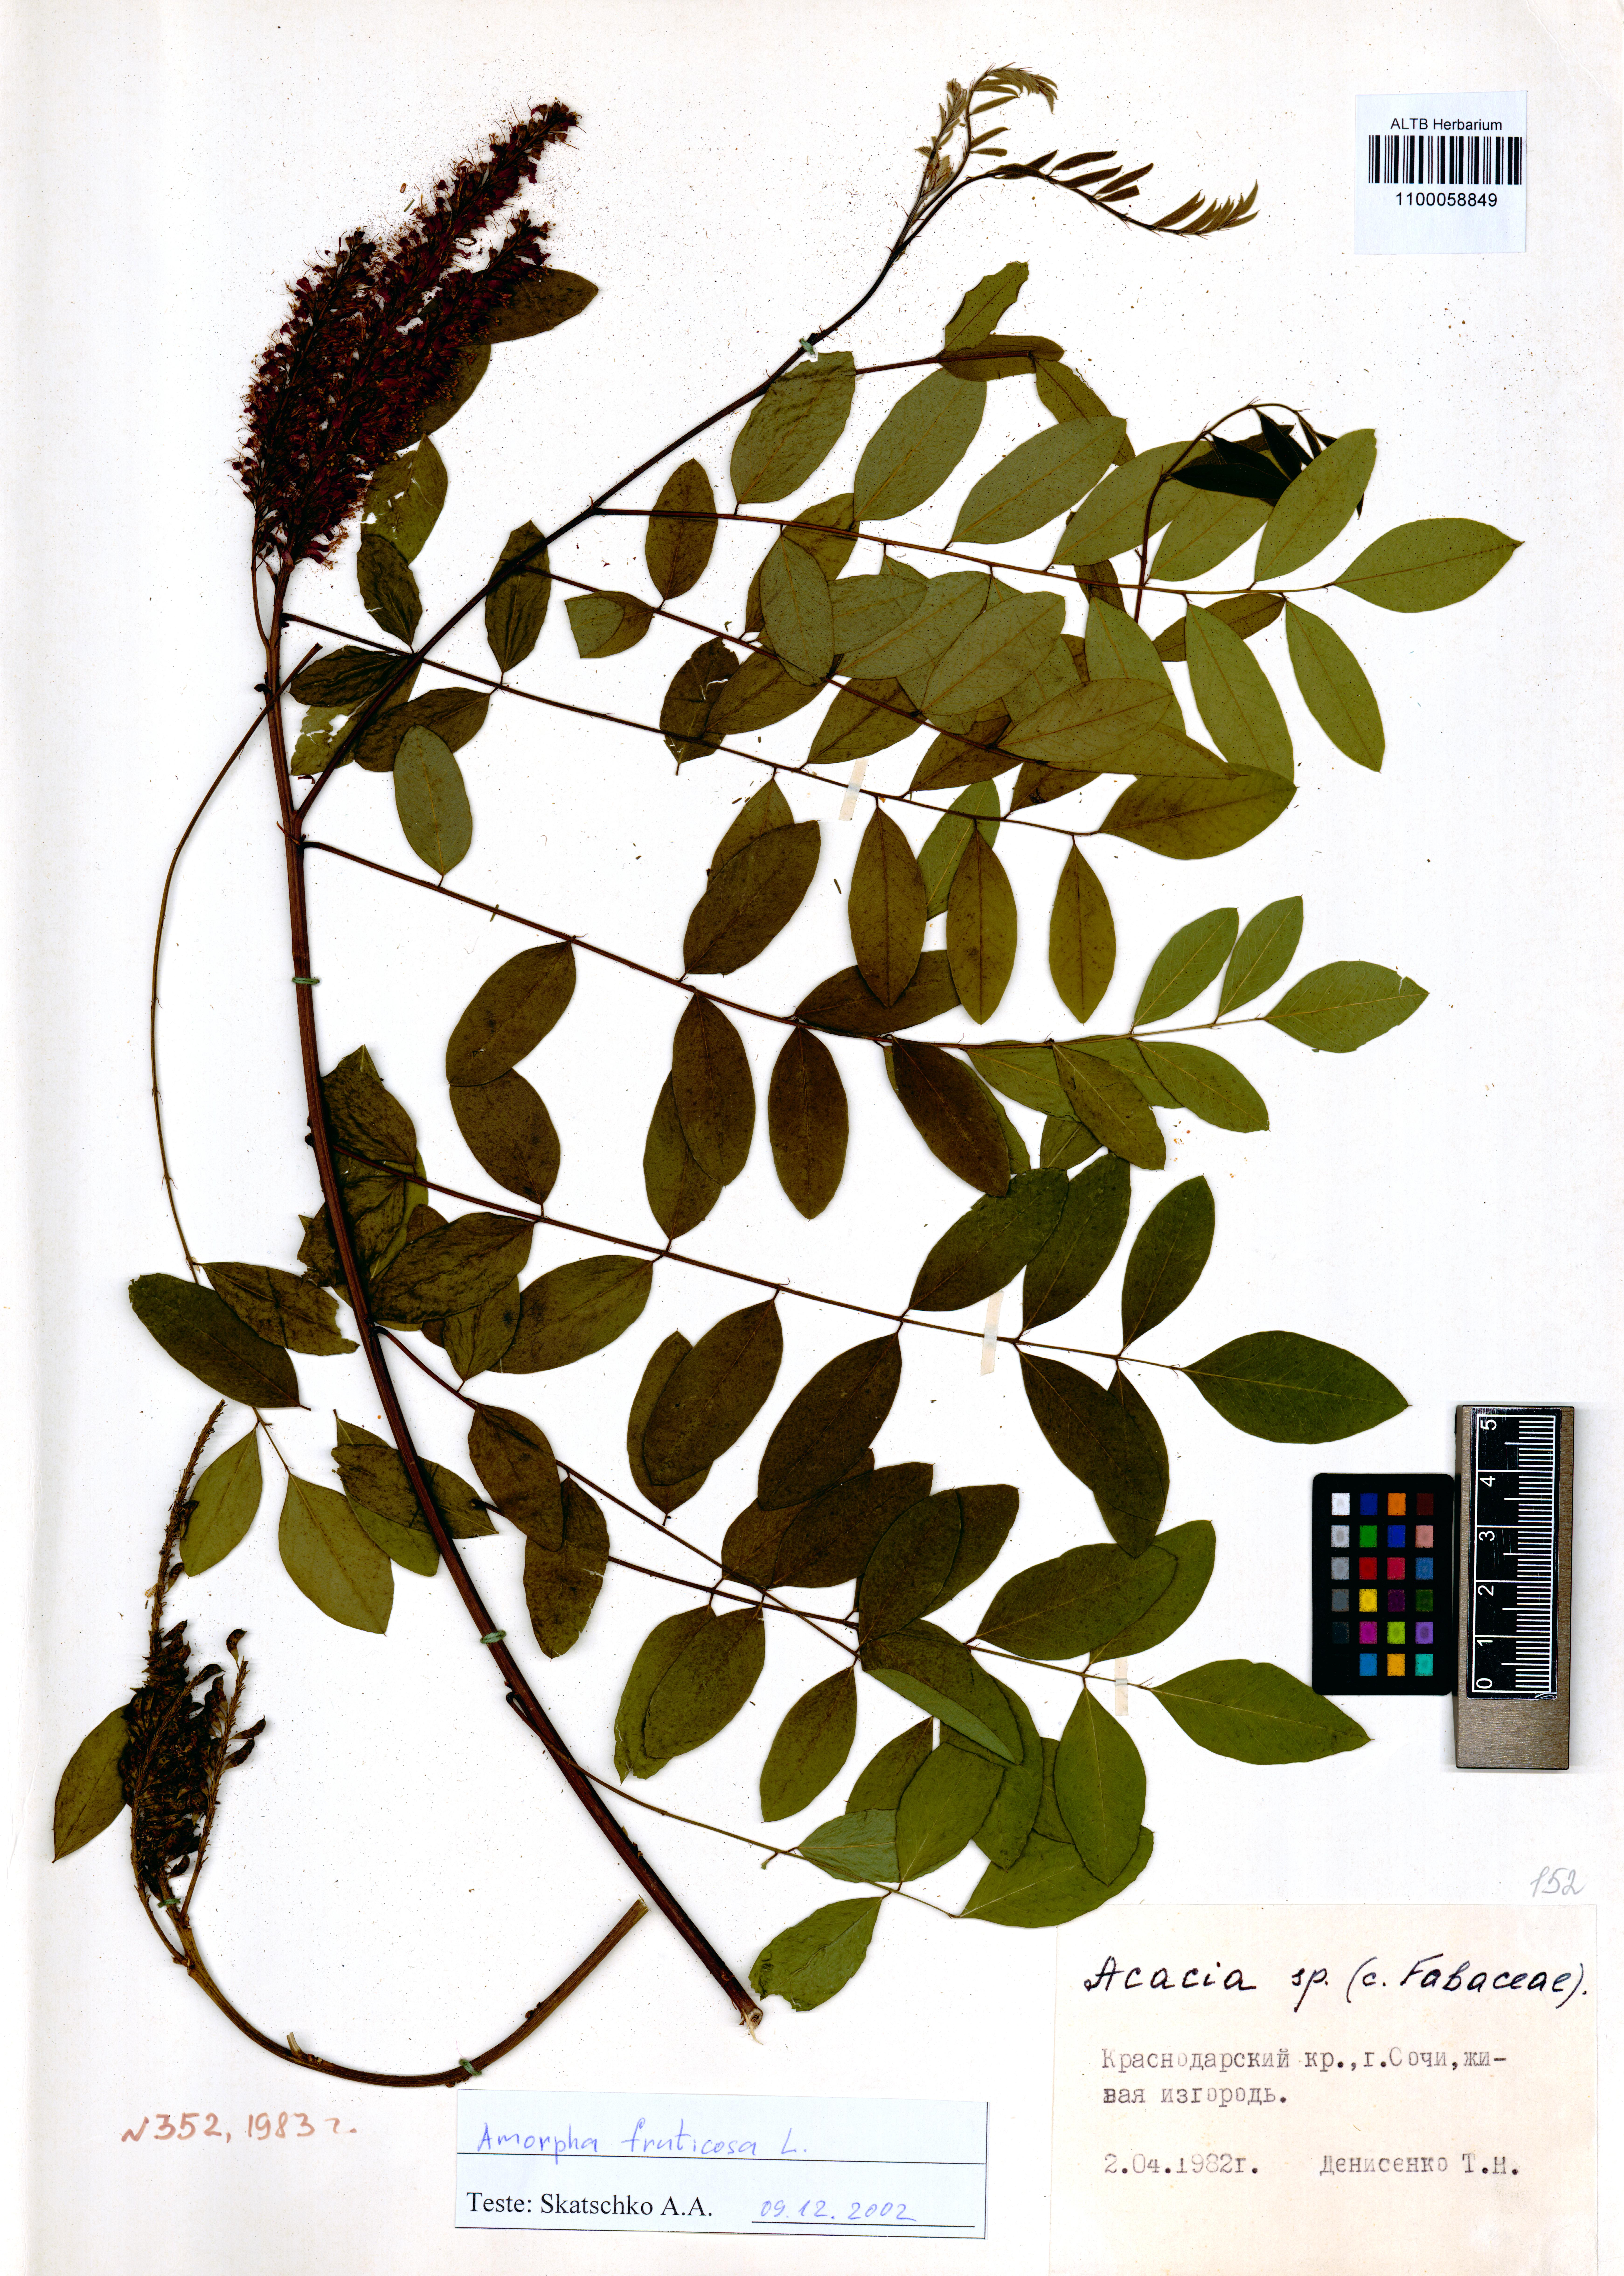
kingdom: Plantae
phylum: Tracheophyta
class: Magnoliopsida
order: Fabales
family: Fabaceae
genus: Amorpha
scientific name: Amorpha fruticosa
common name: False indigo
